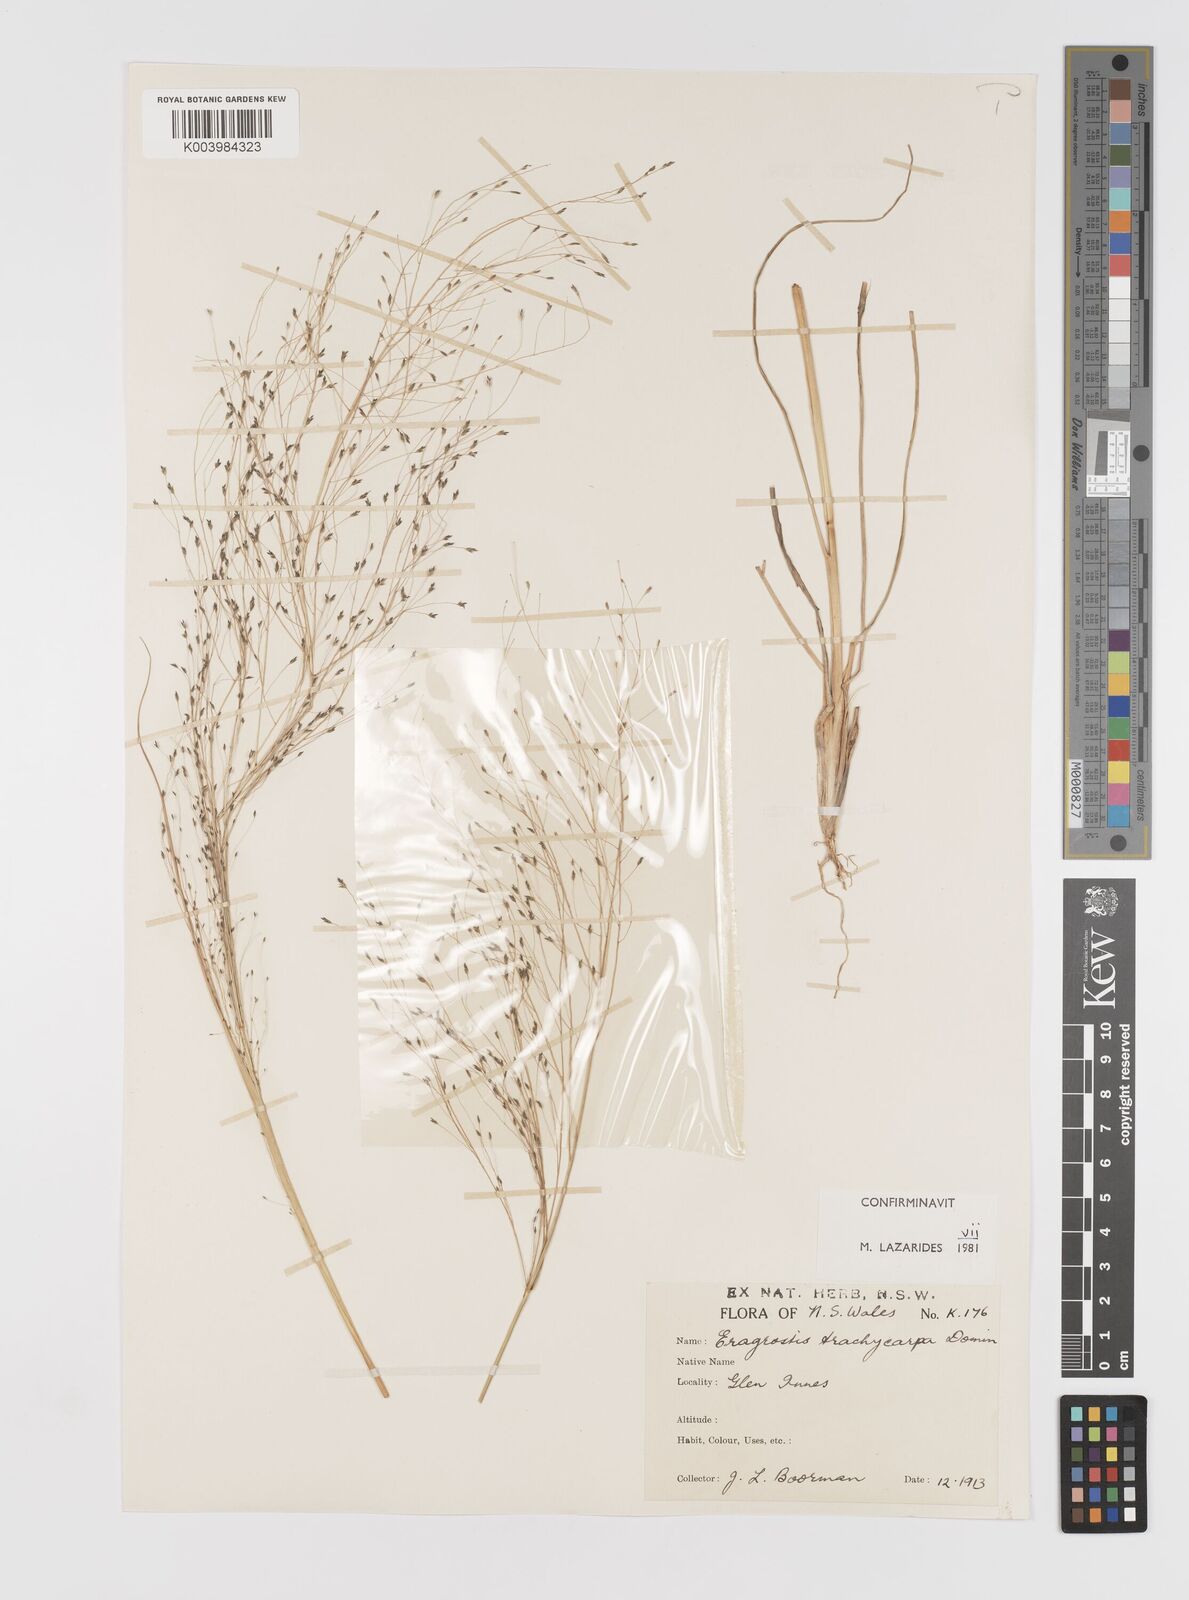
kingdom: Plantae
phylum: Tracheophyta
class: Liliopsida
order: Poales
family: Poaceae
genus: Eragrostis
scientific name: Eragrostis trachycarpa
